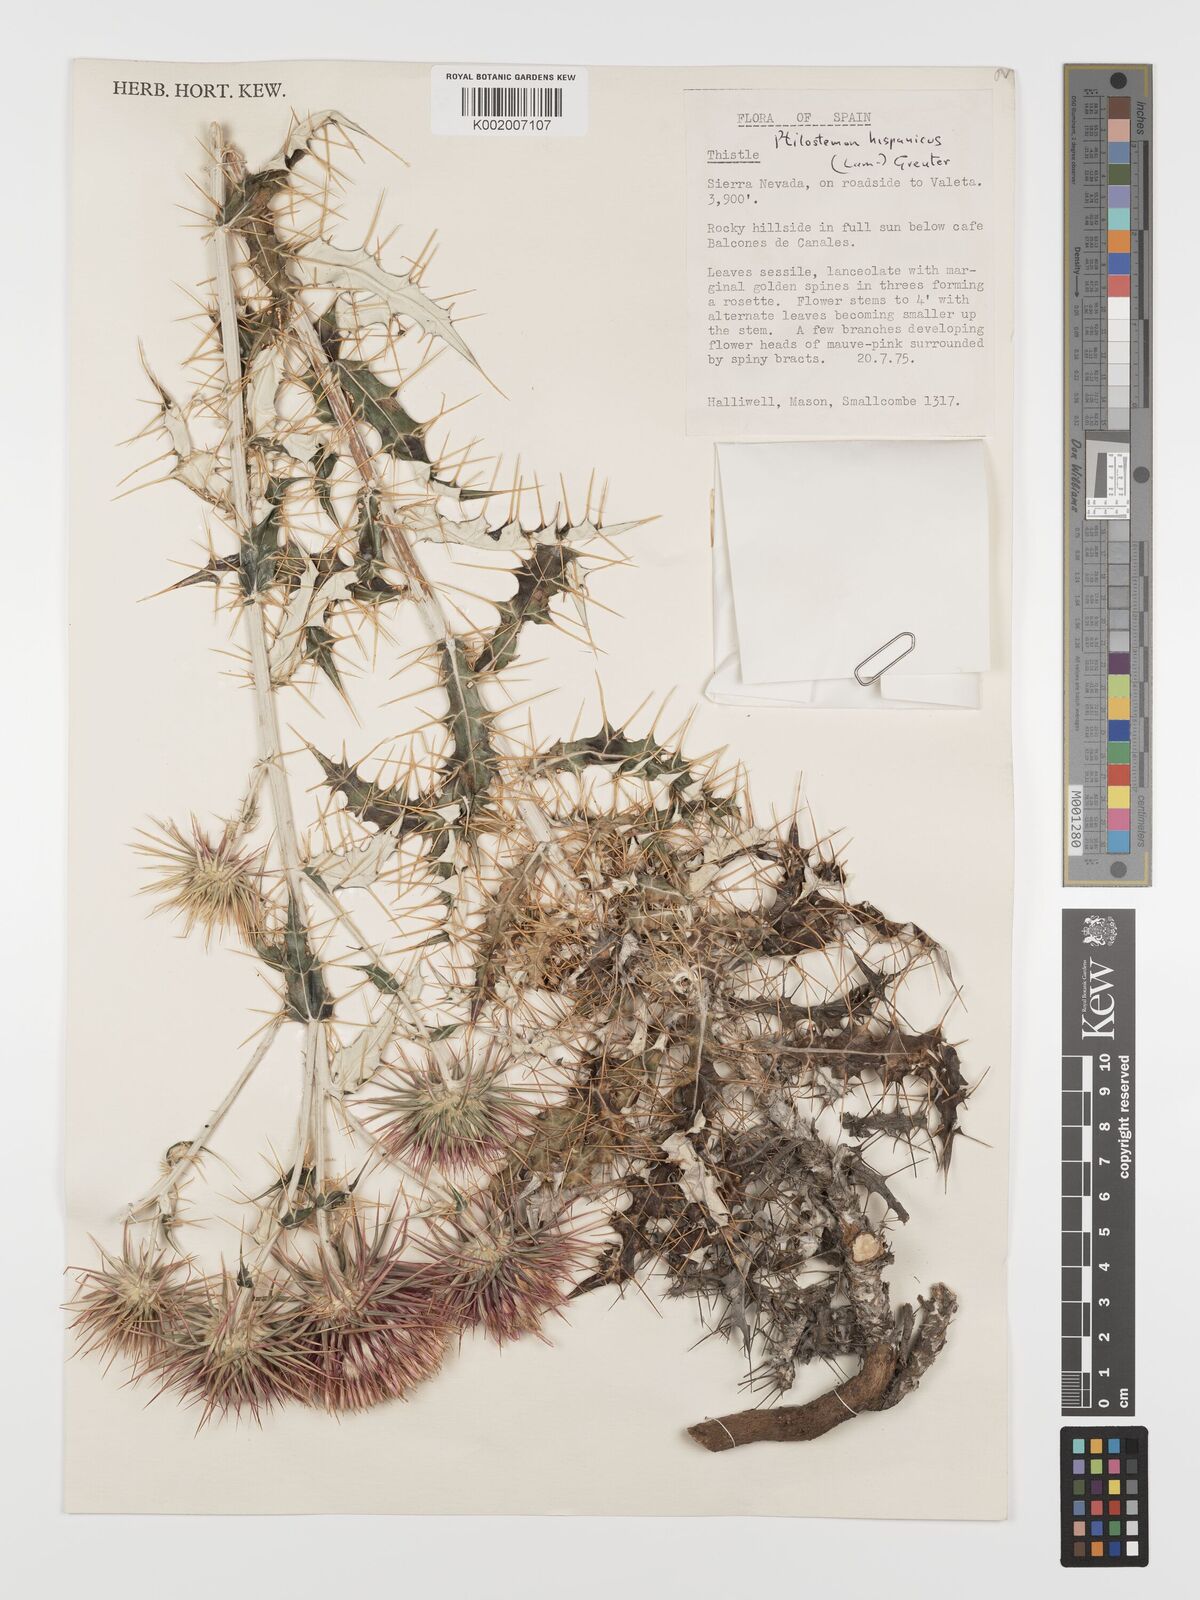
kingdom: Plantae
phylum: Tracheophyta
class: Magnoliopsida
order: Asterales
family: Asteraceae
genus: Ptilostemon
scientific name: Ptilostemon hispanicus
